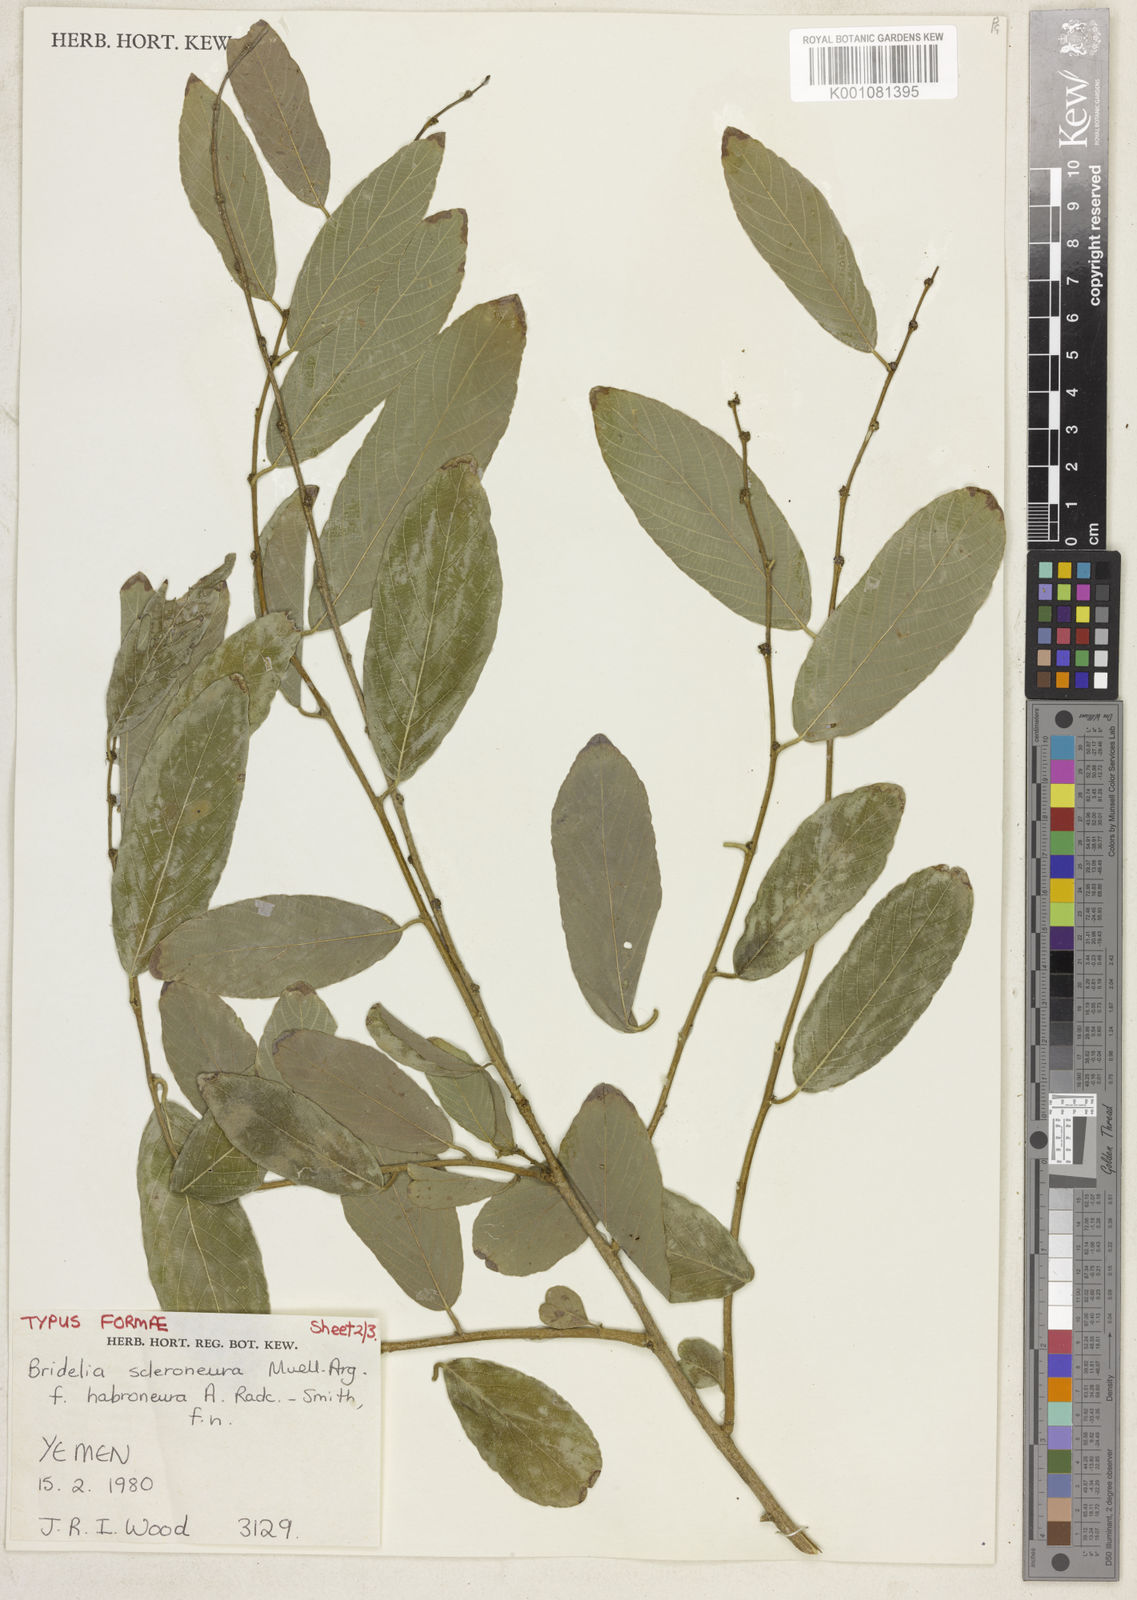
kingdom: Plantae
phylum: Tracheophyta
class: Magnoliopsida
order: Malpighiales
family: Phyllanthaceae
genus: Bridelia
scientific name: Bridelia
